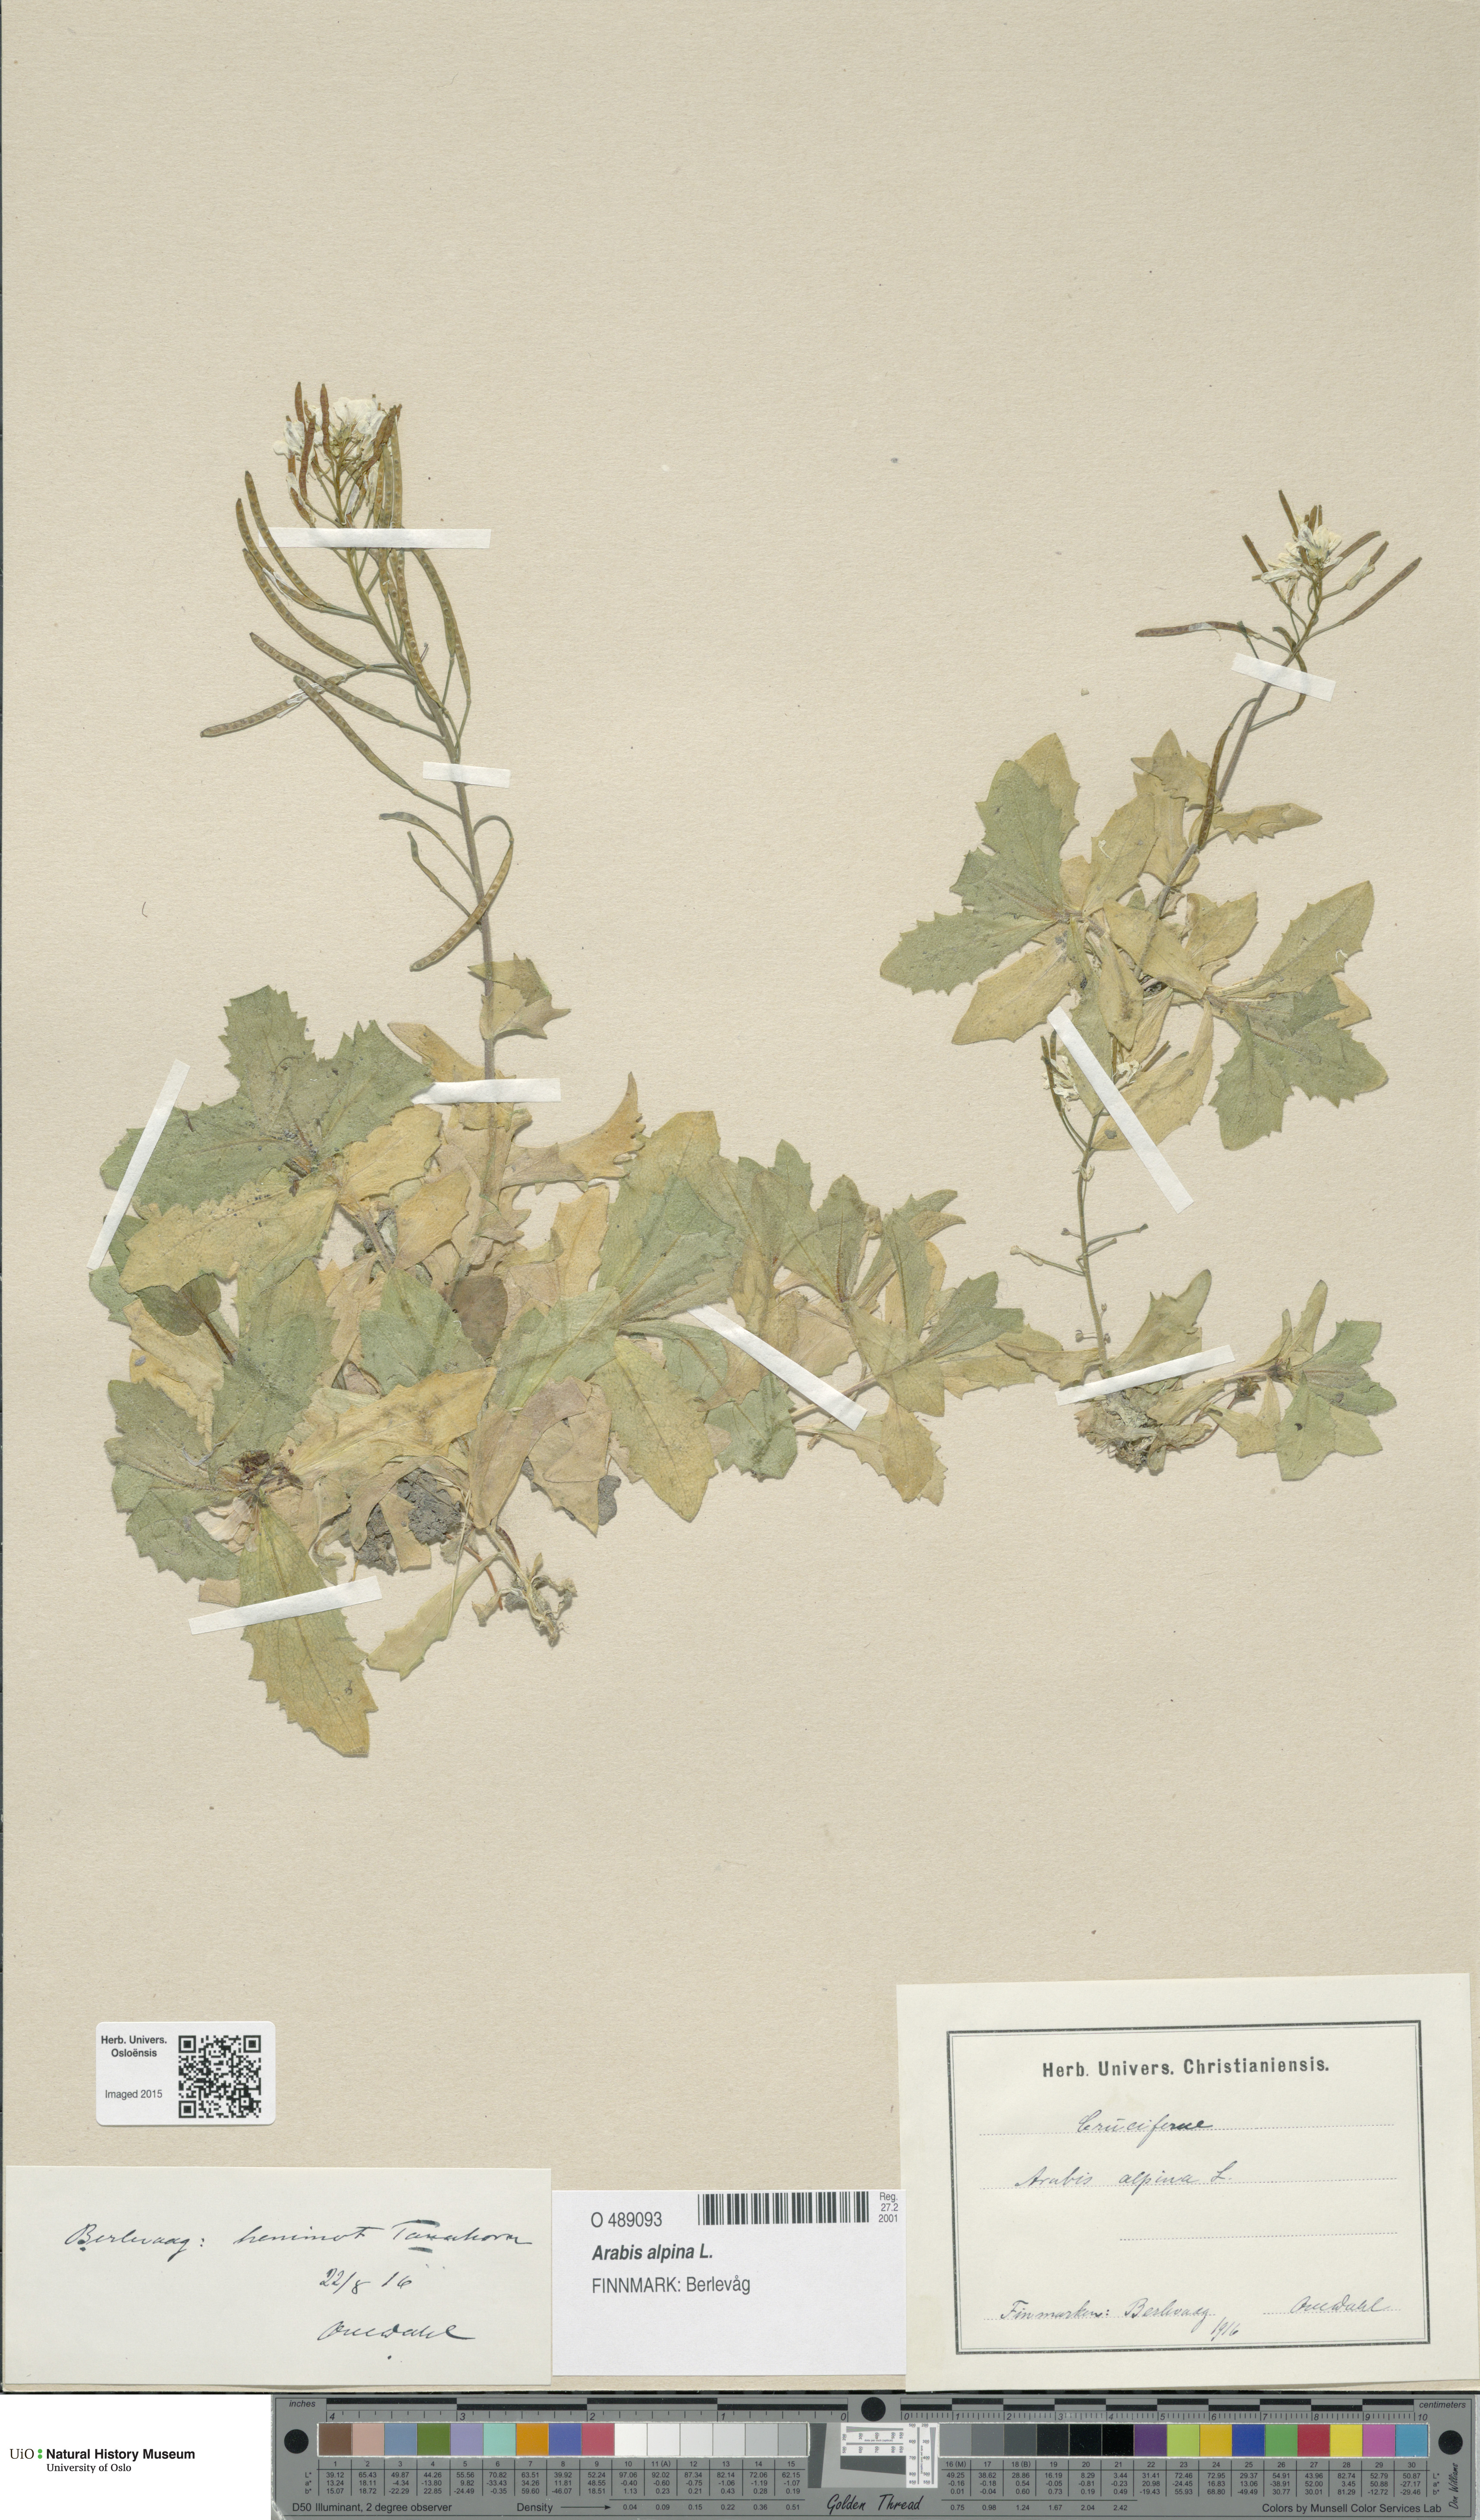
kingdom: Plantae
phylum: Tracheophyta
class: Magnoliopsida
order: Brassicales
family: Brassicaceae
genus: Arabis
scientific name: Arabis alpina
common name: Alpine rock-cress
